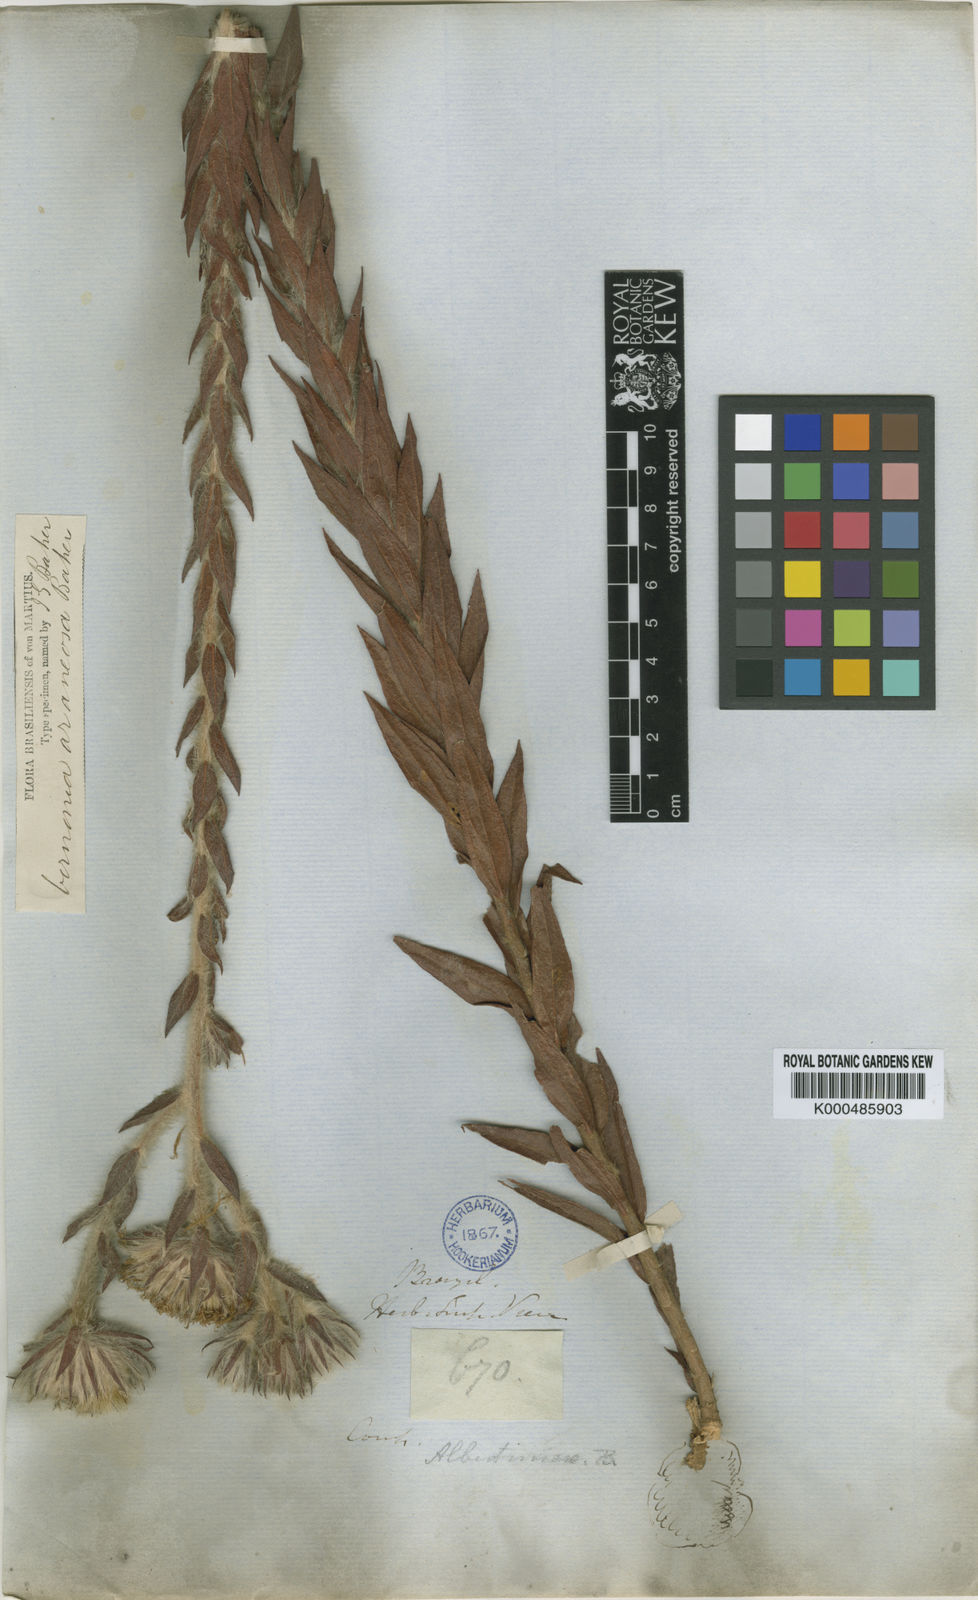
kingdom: Plantae
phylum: Tracheophyta
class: Magnoliopsida
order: Asterales
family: Asteraceae
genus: Lessingianthus
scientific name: Lessingianthus araneosus
